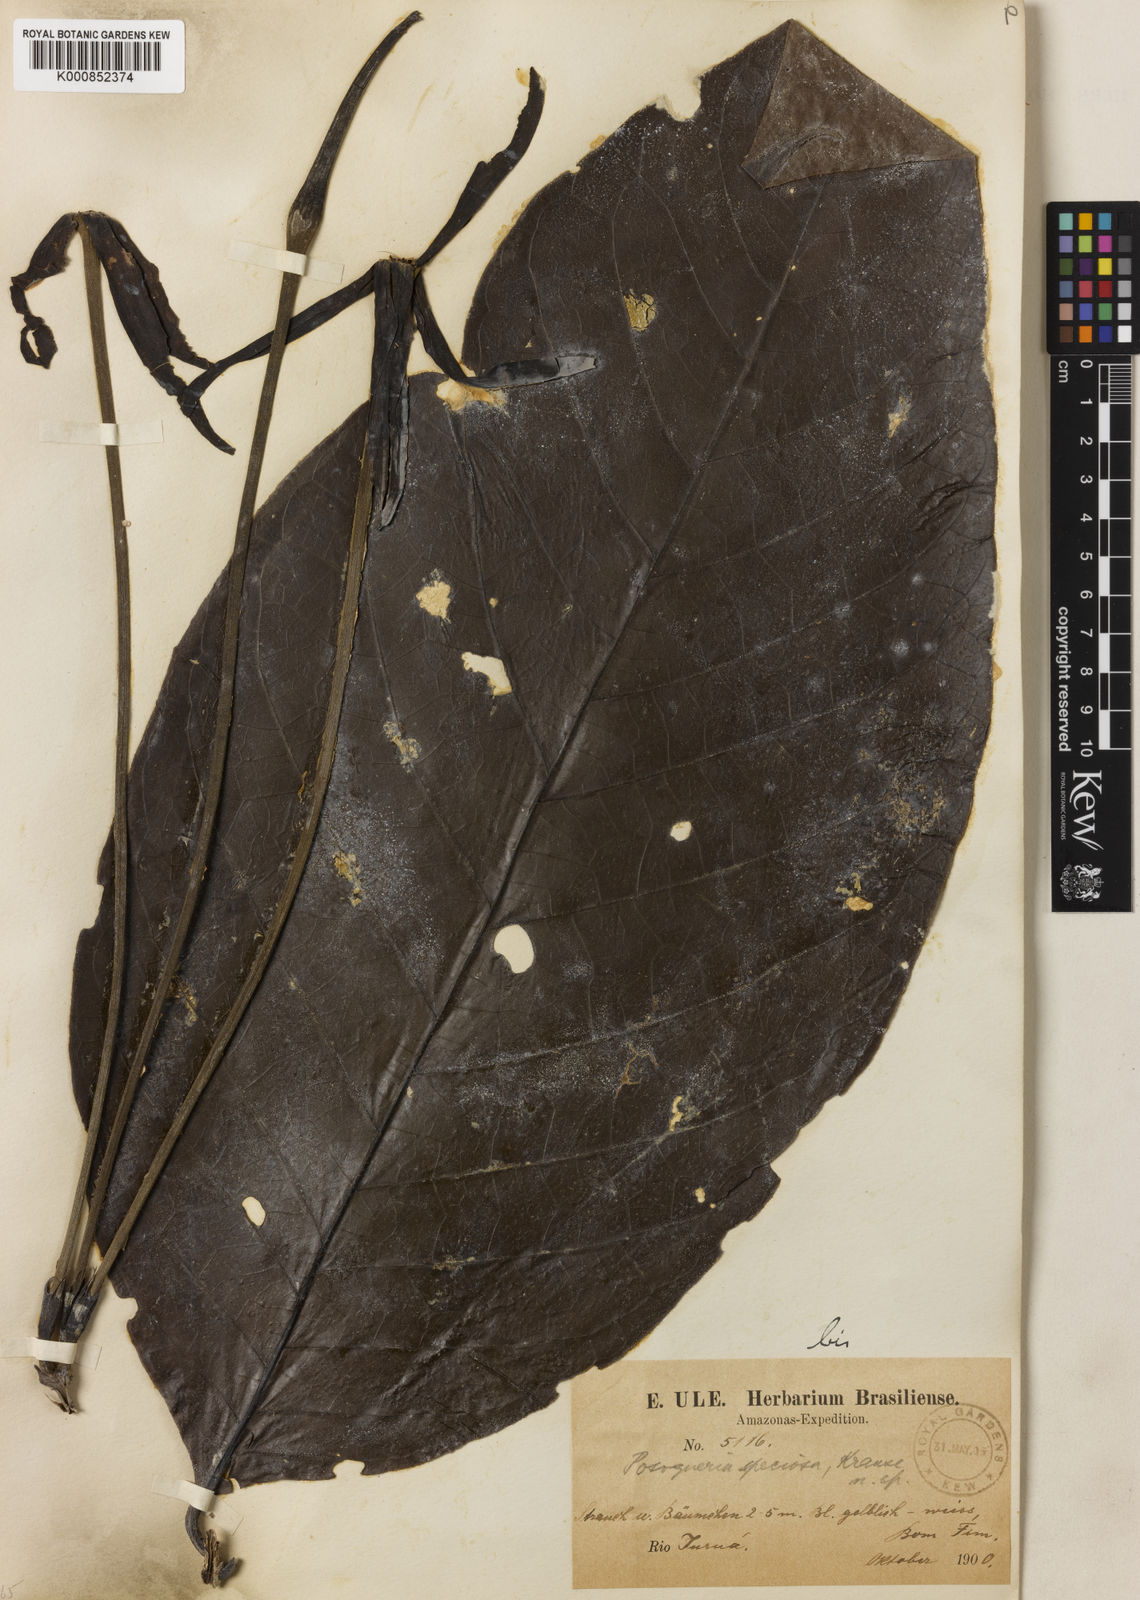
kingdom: Plantae
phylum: Tracheophyta
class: Magnoliopsida
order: Gentianales
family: Rubiaceae
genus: Tocoyena
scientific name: Tocoyena megistantha
